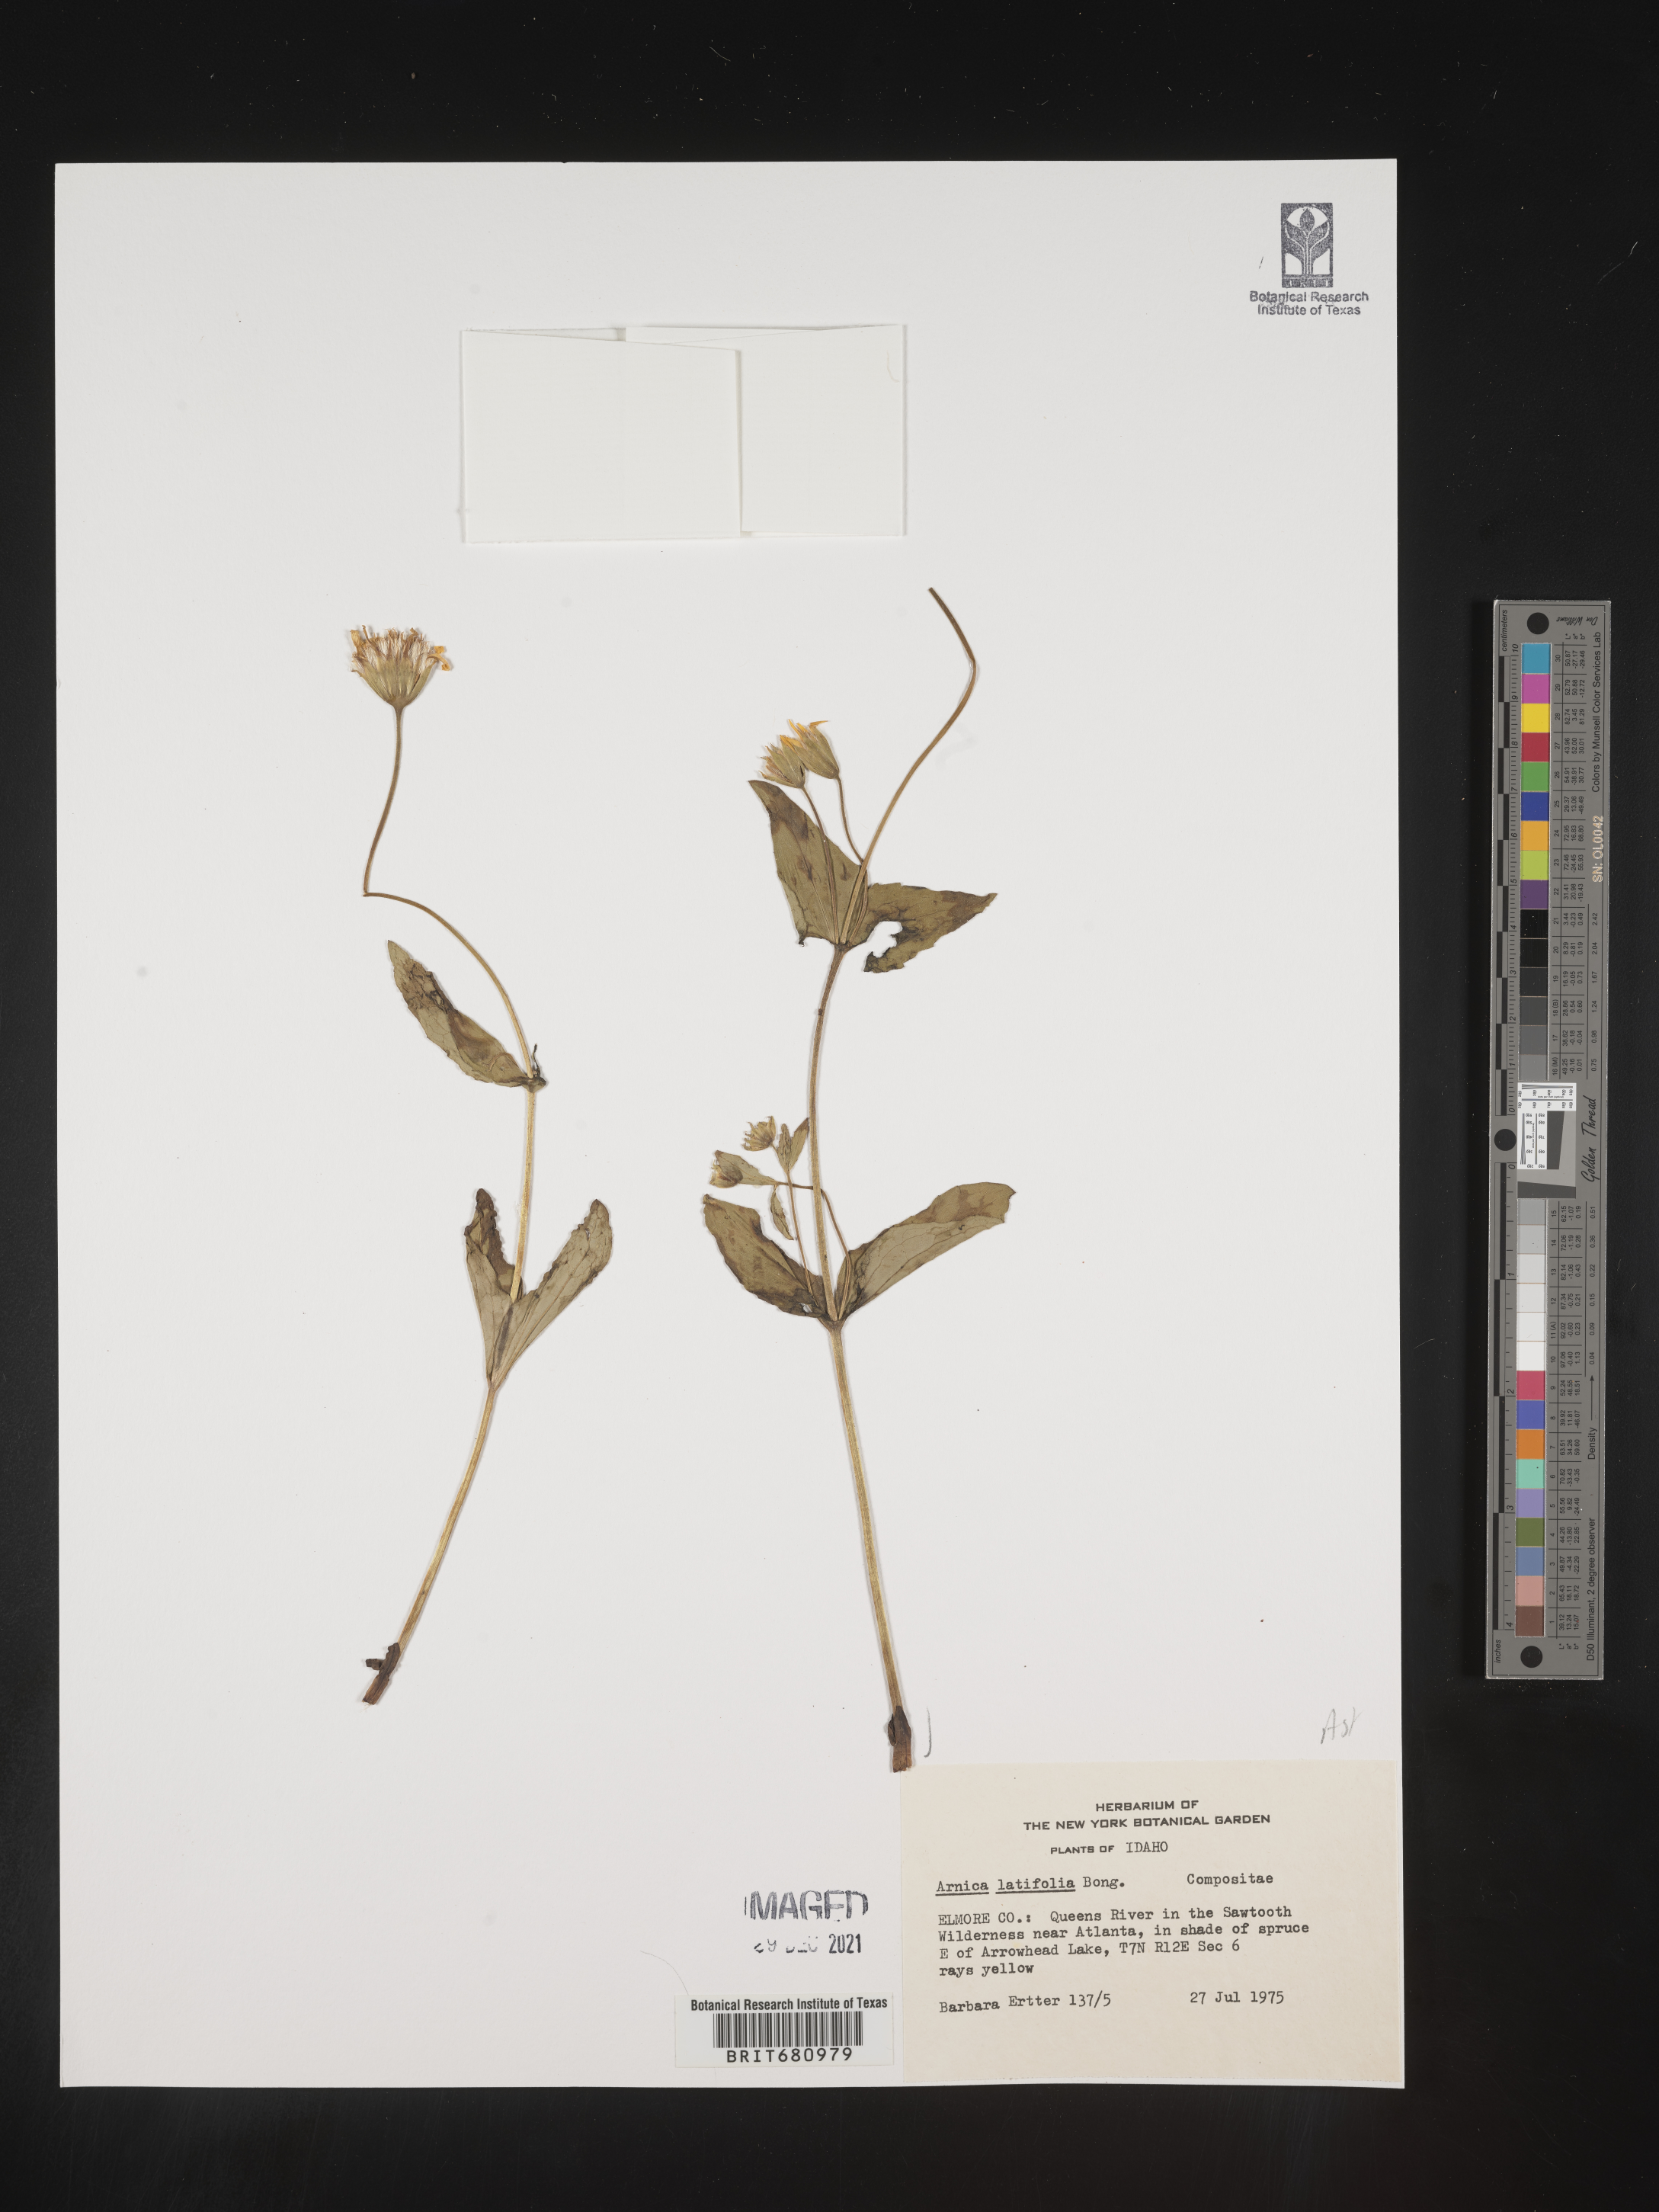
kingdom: Plantae
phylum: Tracheophyta
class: Magnoliopsida
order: Asterales
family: Asteraceae
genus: Arnica
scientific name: Arnica latifolia
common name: Arnica
